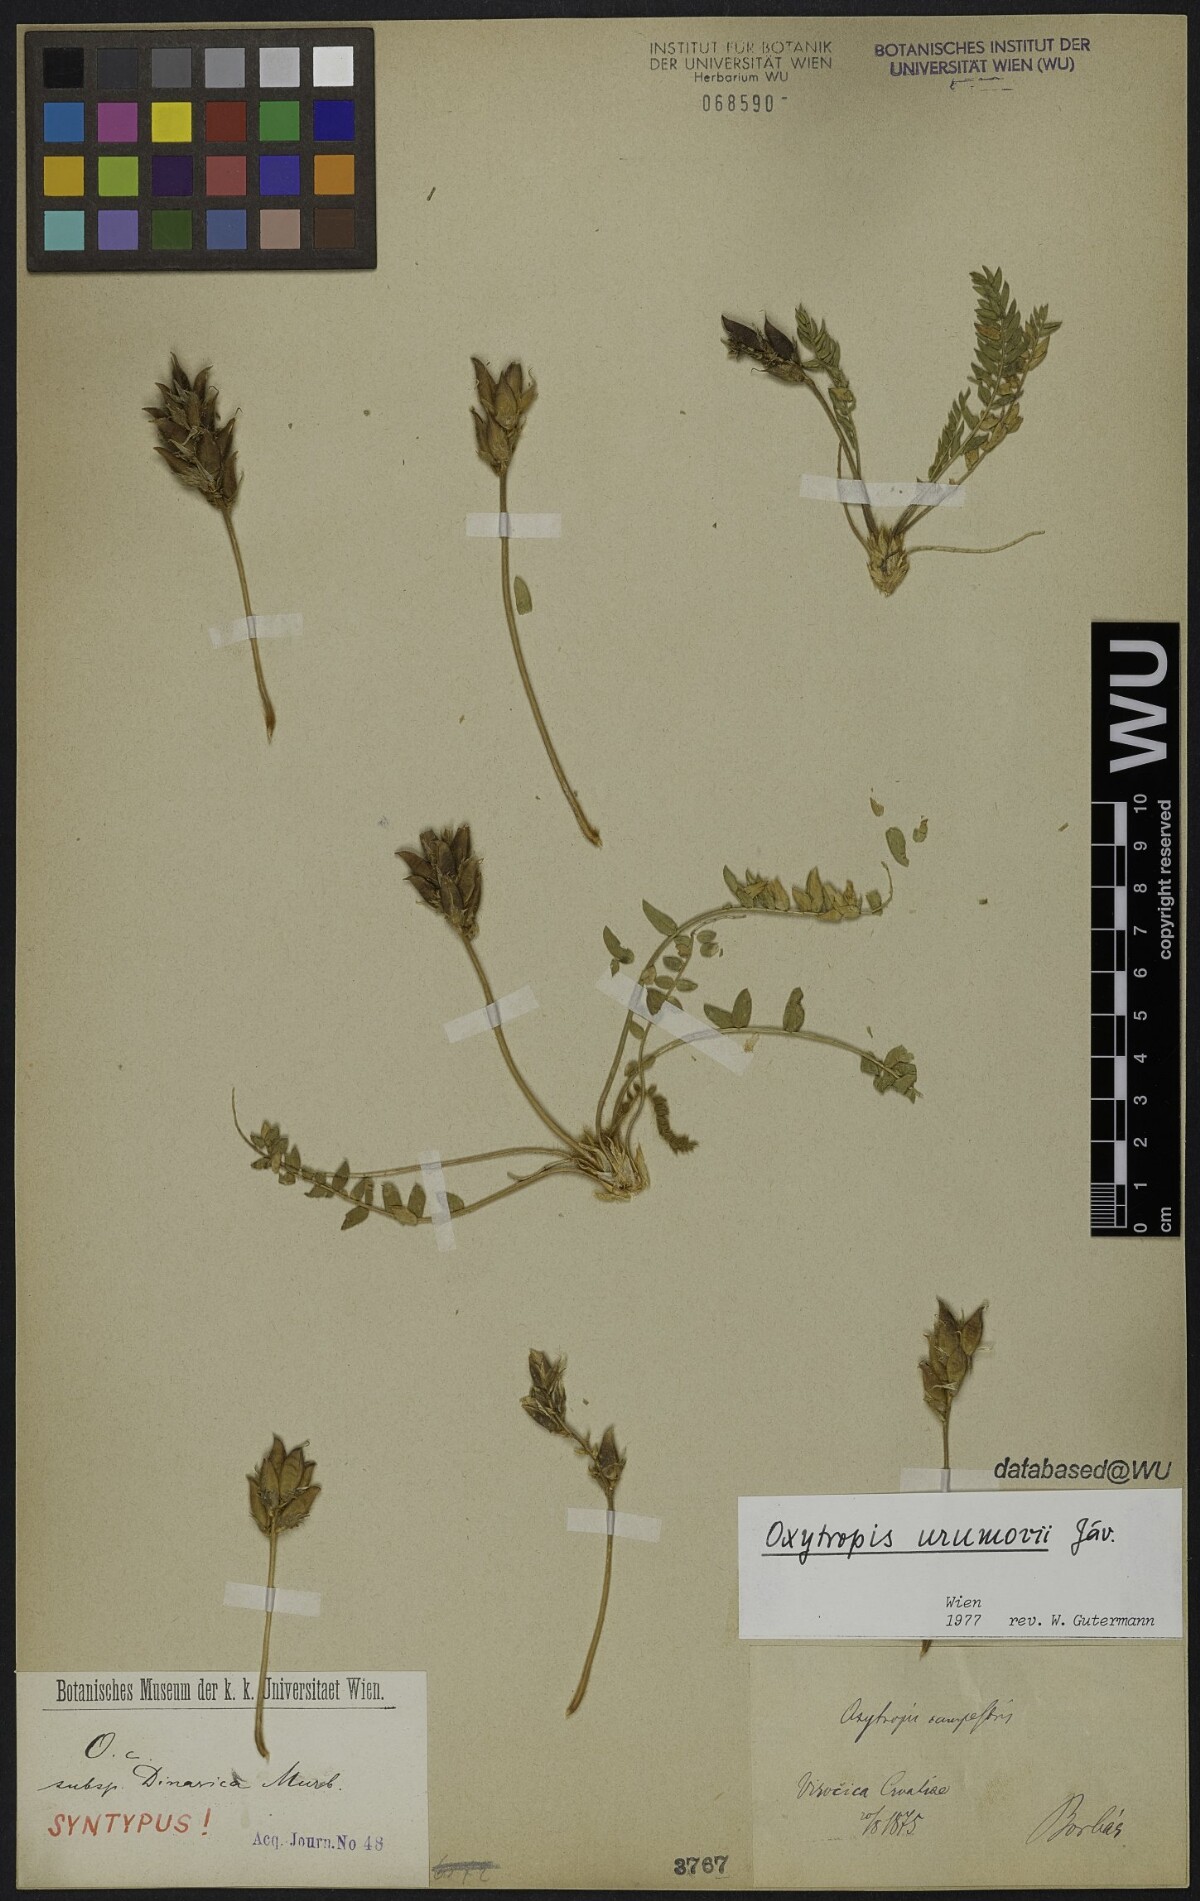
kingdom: Plantae
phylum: Tracheophyta
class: Magnoliopsida
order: Fabales
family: Fabaceae
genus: Oxytropis
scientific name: Oxytropis dinarica
